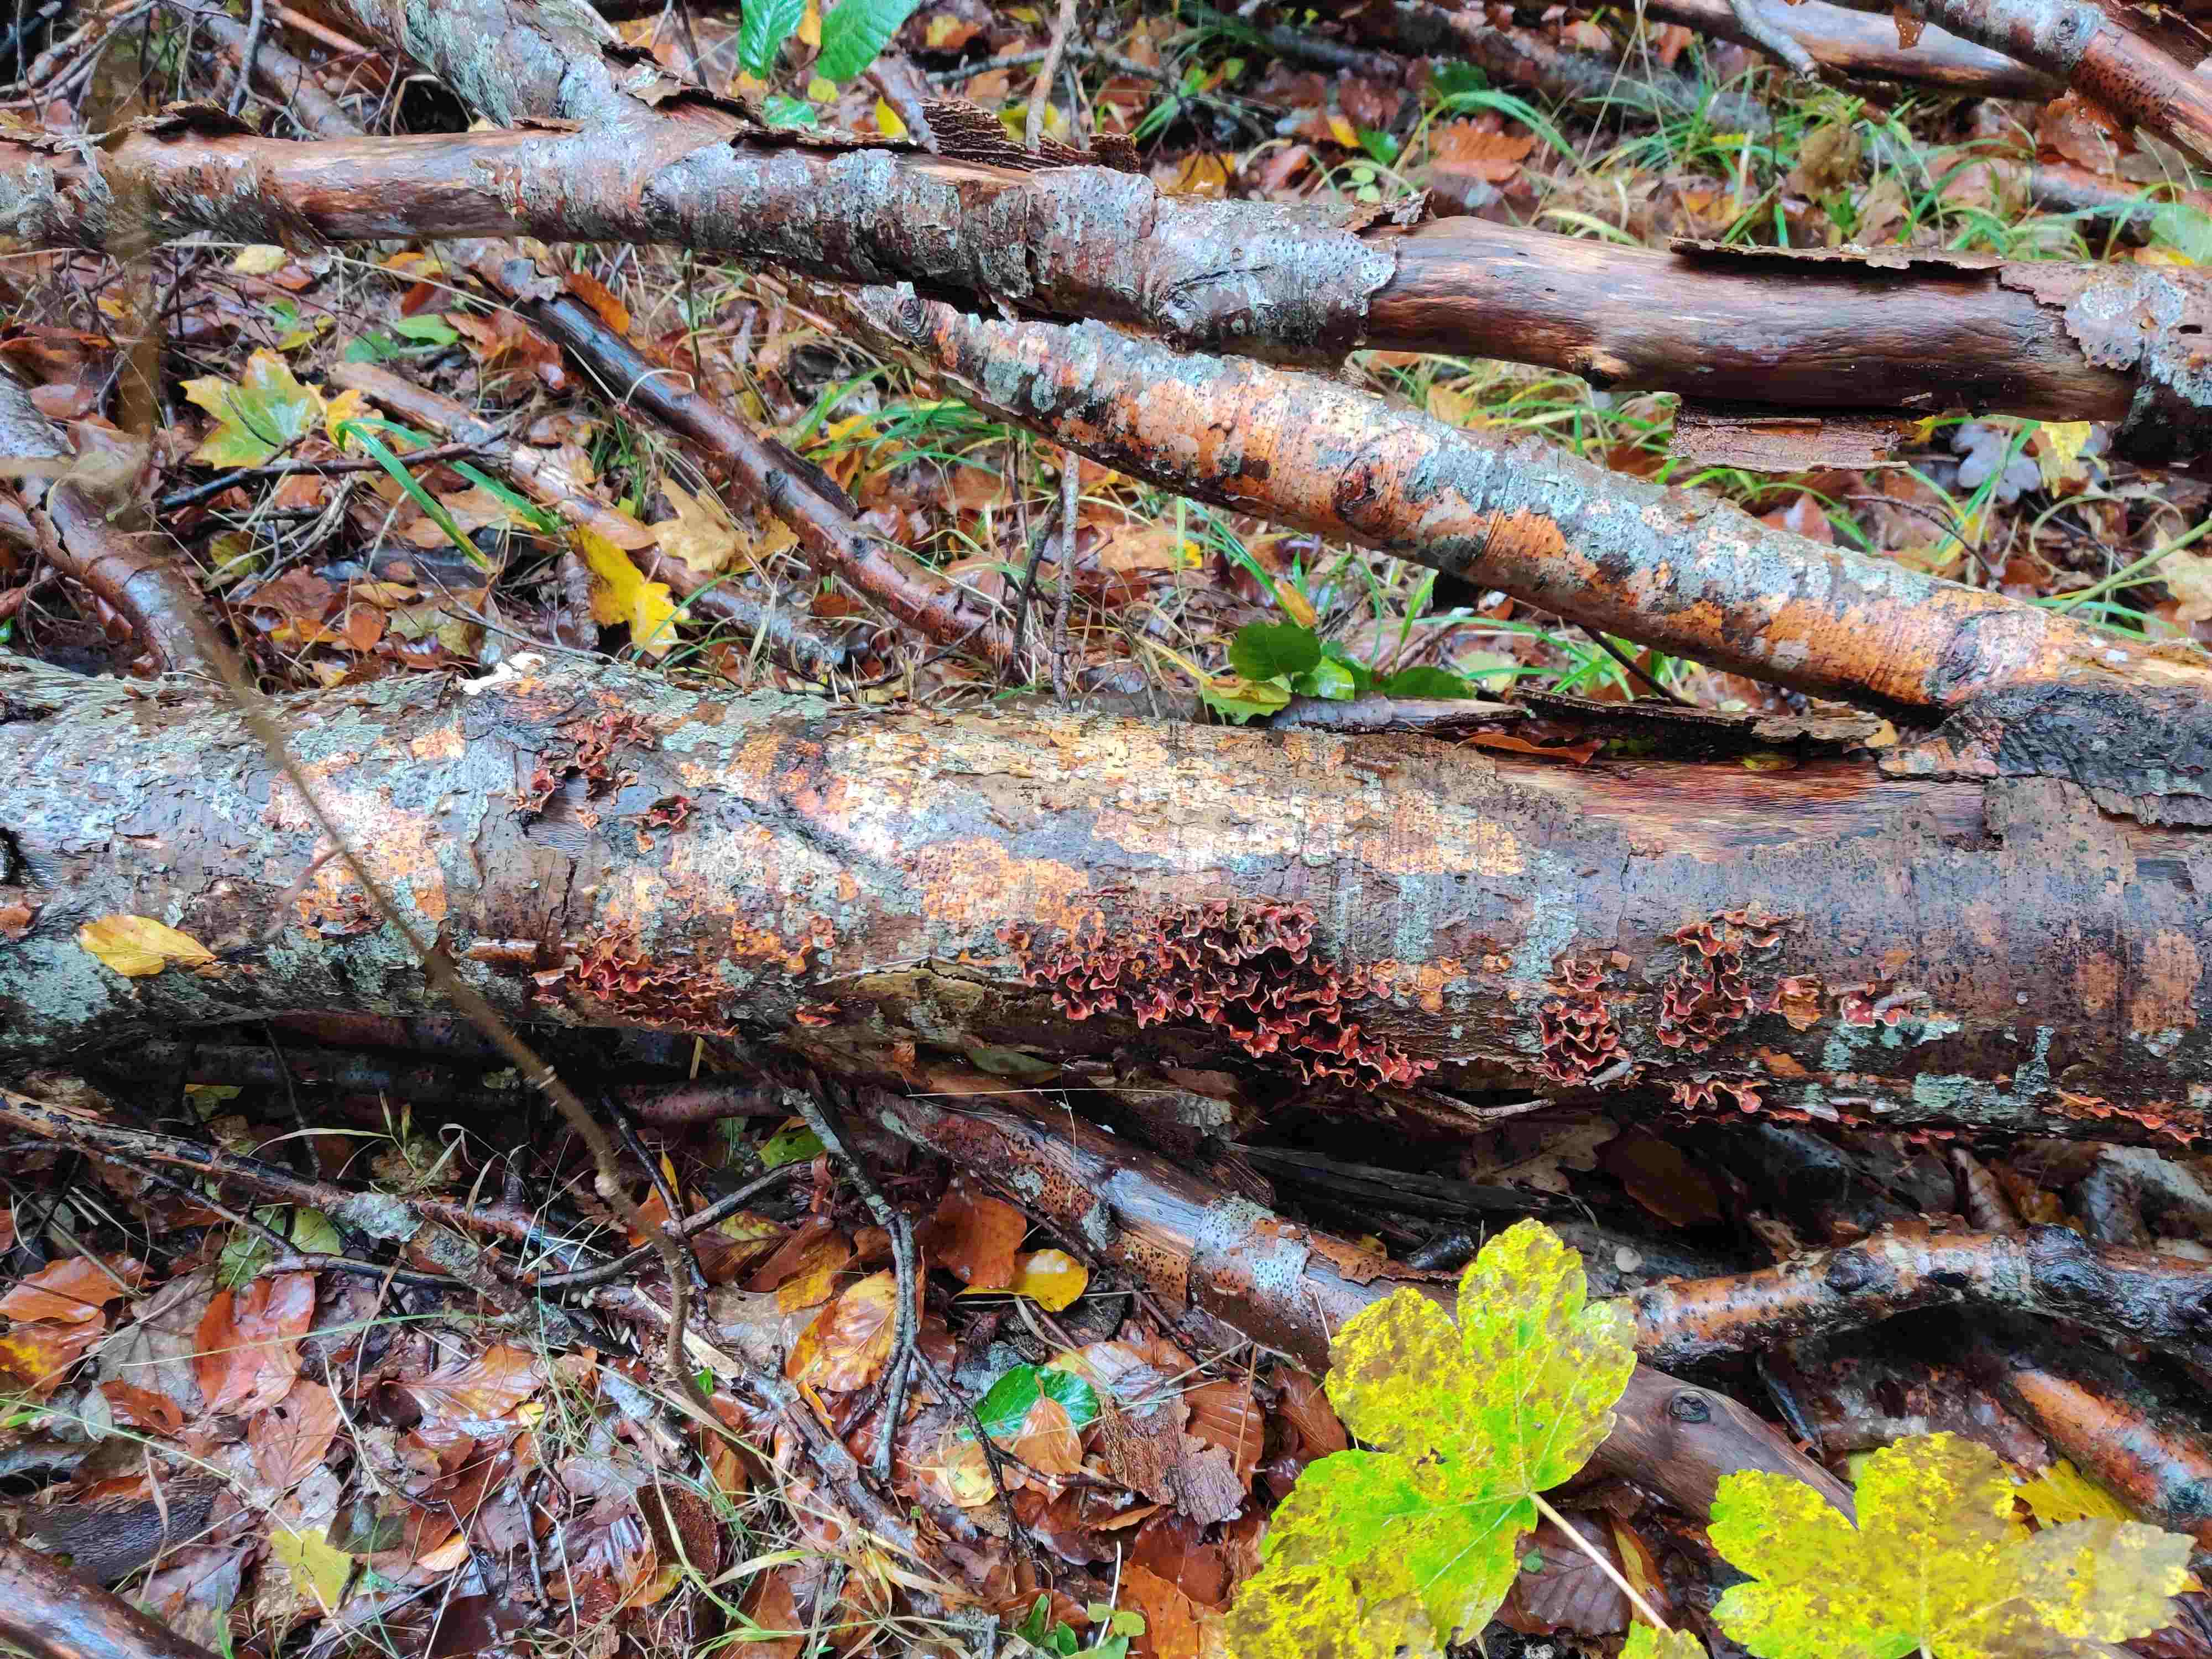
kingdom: Fungi
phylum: Basidiomycota
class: Agaricomycetes
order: Russulales
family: Stereaceae
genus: Stereum
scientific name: Stereum hirsutum
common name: håret lædersvamp
